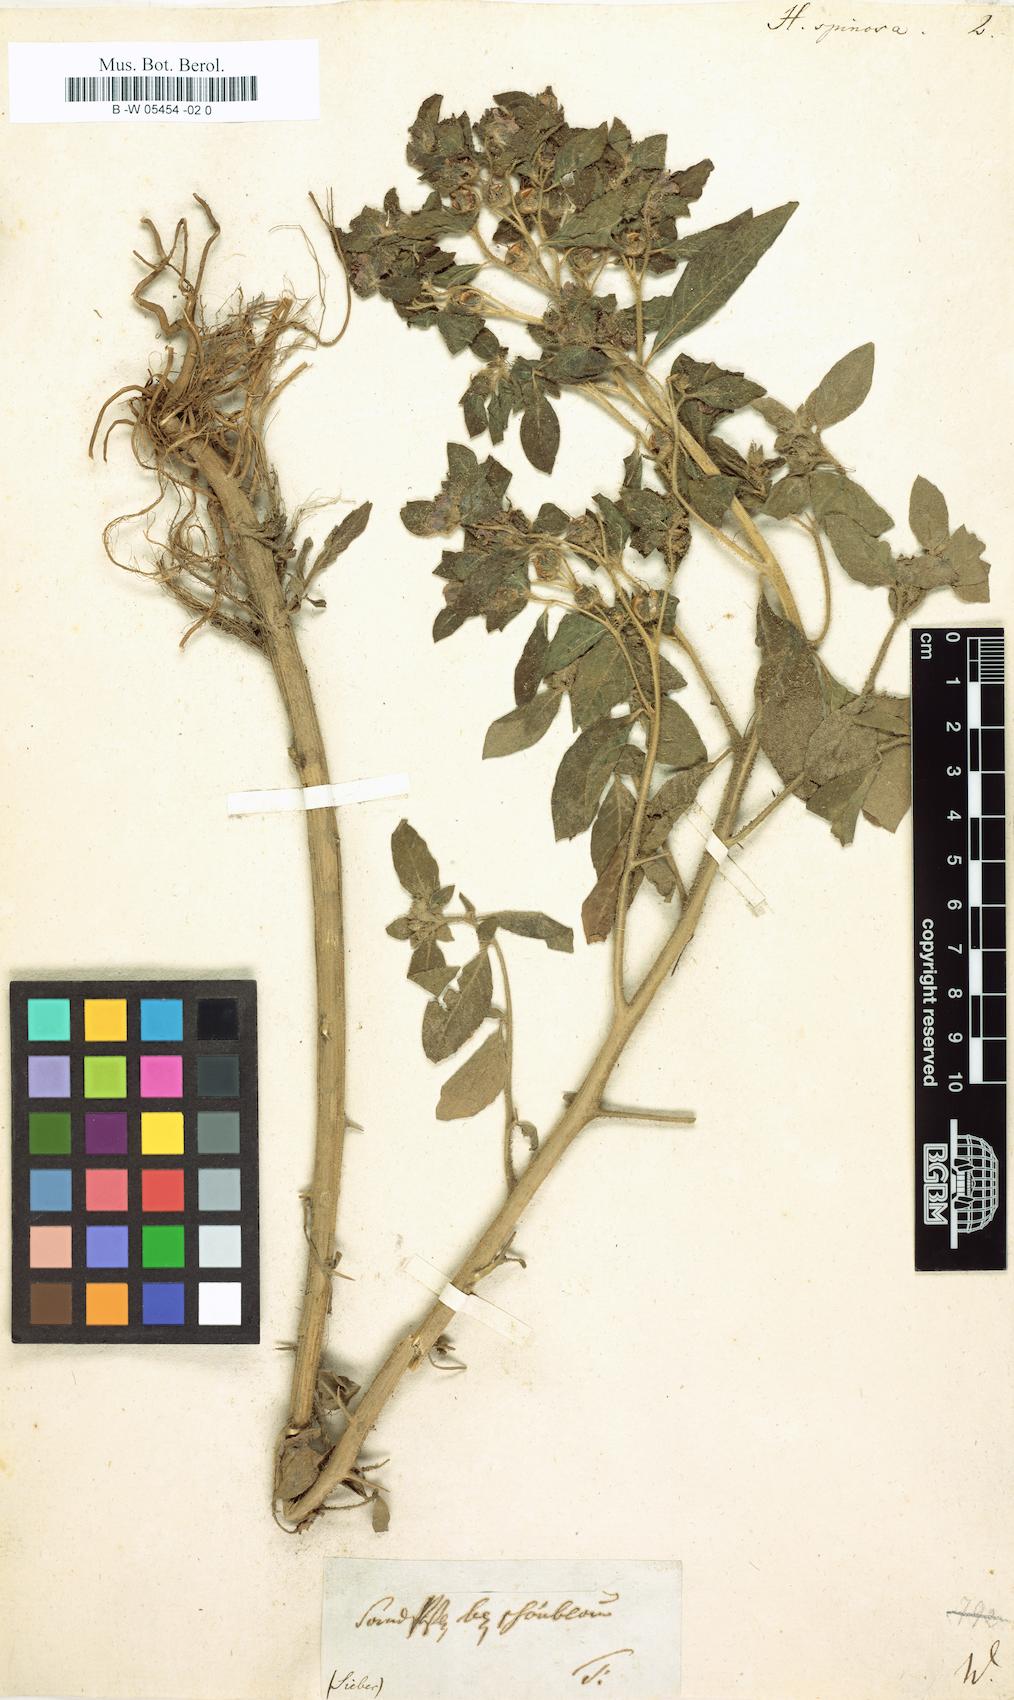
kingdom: Plantae
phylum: Tracheophyta
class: Magnoliopsida
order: Solanales
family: Hydroleaceae
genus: Hydrolea
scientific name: Hydrolea spinosa
